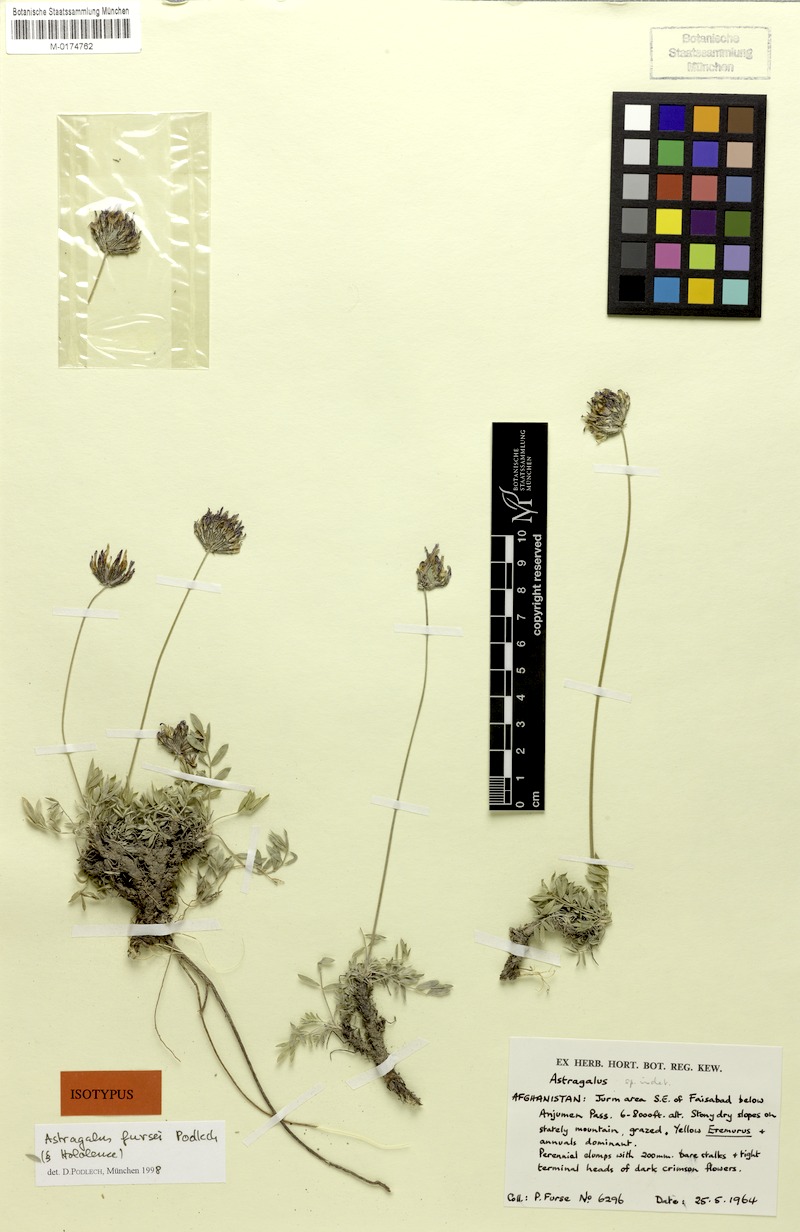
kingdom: Plantae
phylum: Tracheophyta
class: Magnoliopsida
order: Fabales
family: Fabaceae
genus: Astragalus
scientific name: Astragalus fursei
